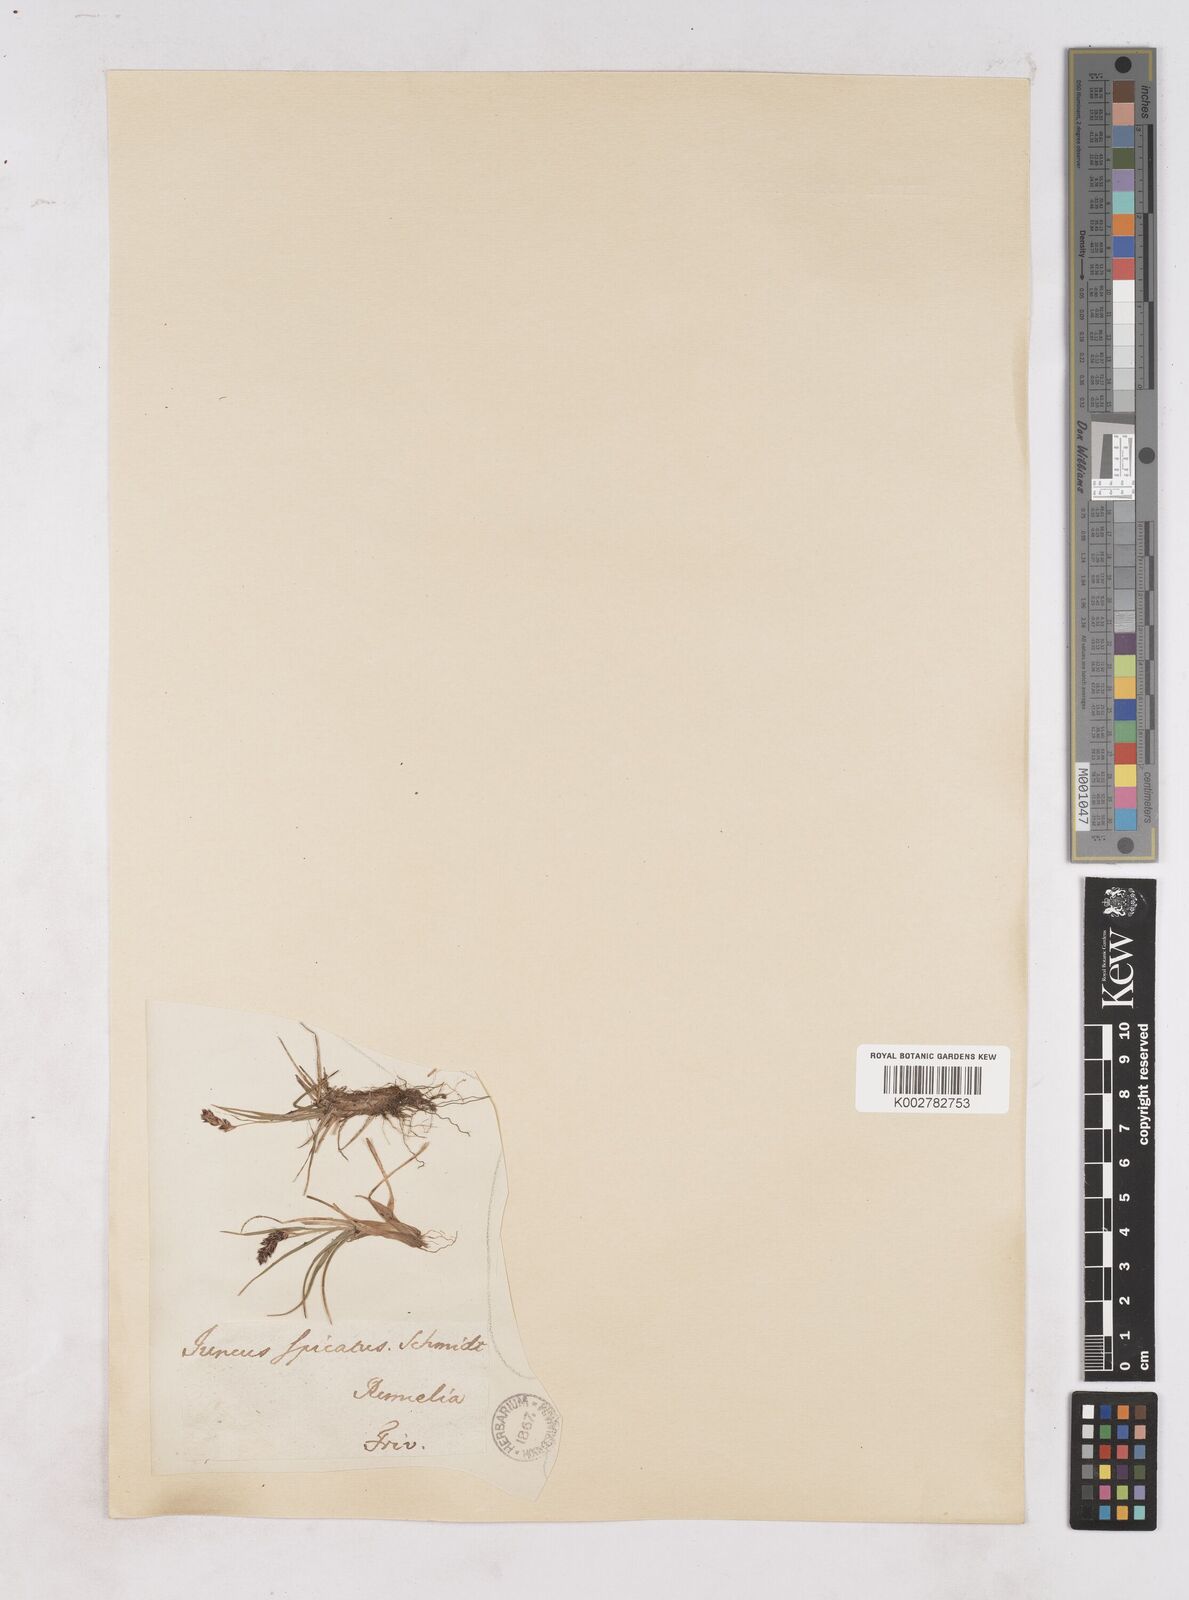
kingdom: Plantae
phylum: Tracheophyta
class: Liliopsida
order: Poales
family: Juncaceae
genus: Luzula
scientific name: Luzula spicata
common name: Spiked wood-rush
